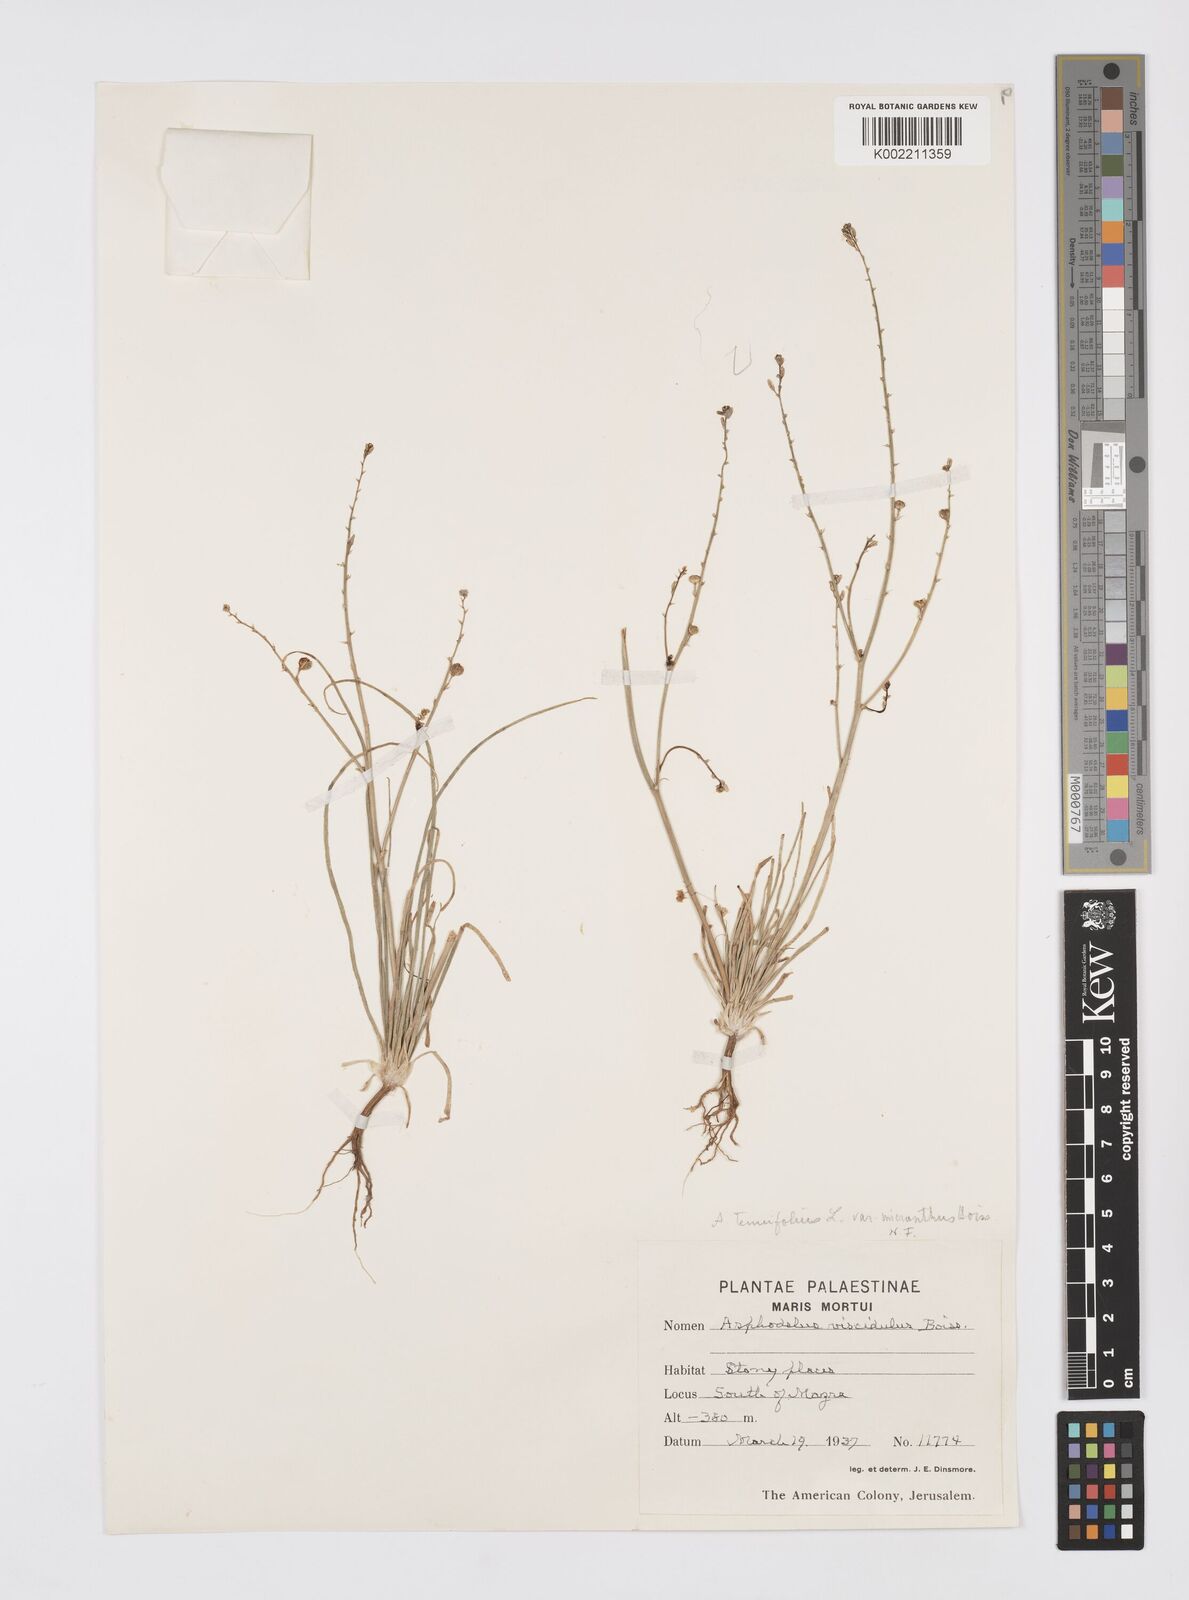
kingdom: Plantae
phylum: Tracheophyta
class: Liliopsida
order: Asparagales
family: Asphodelaceae
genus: Asphodelus
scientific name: Asphodelus viscidulus
